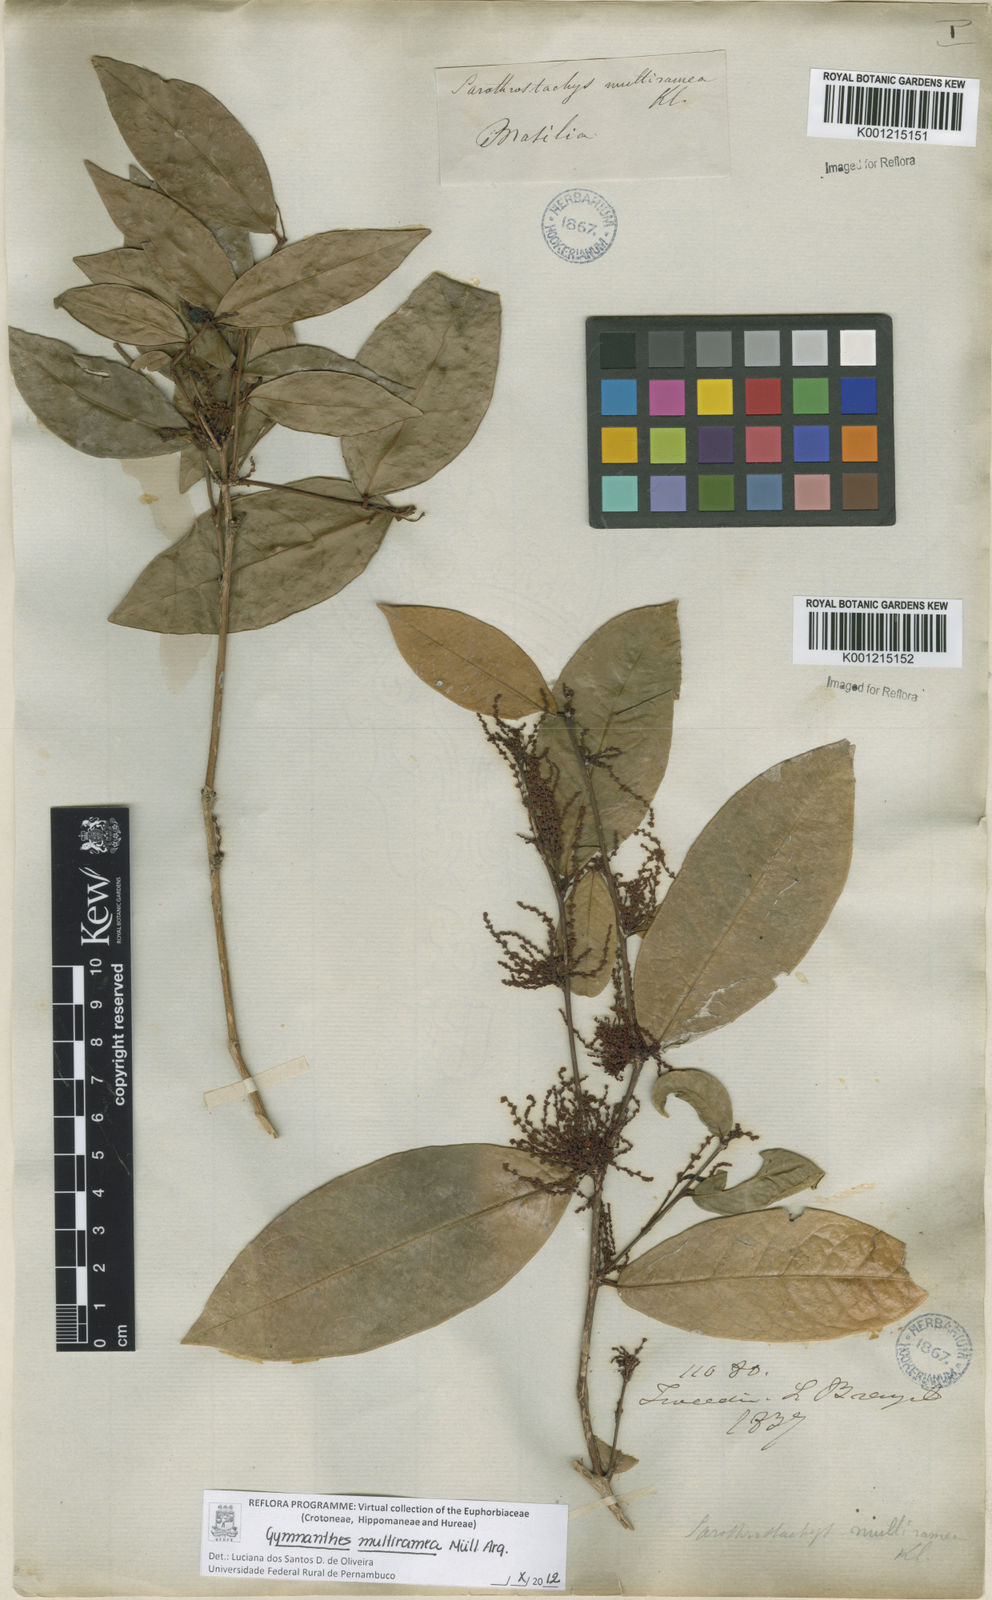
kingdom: Plantae
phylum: Tracheophyta
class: Magnoliopsida
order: Malpighiales
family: Euphorbiaceae
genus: Gymnanthes
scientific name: Gymnanthes
